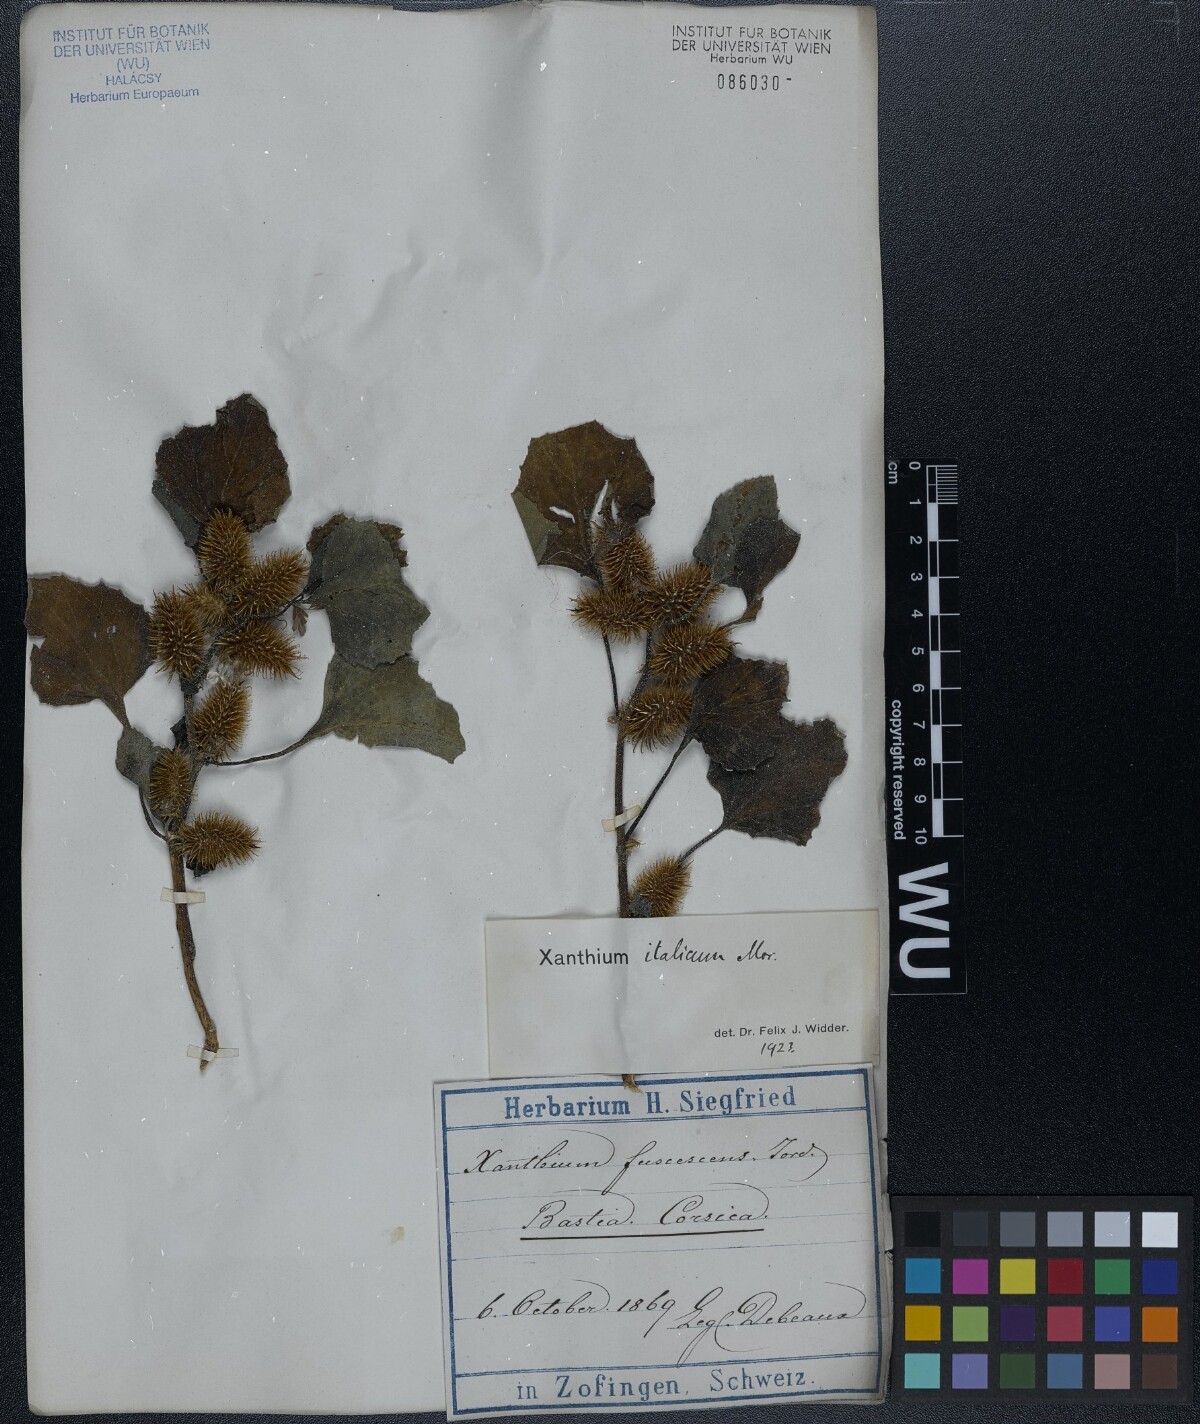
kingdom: Plantae
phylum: Tracheophyta
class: Magnoliopsida
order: Asterales
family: Asteraceae
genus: Xanthium
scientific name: Xanthium orientale
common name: Californian burr
